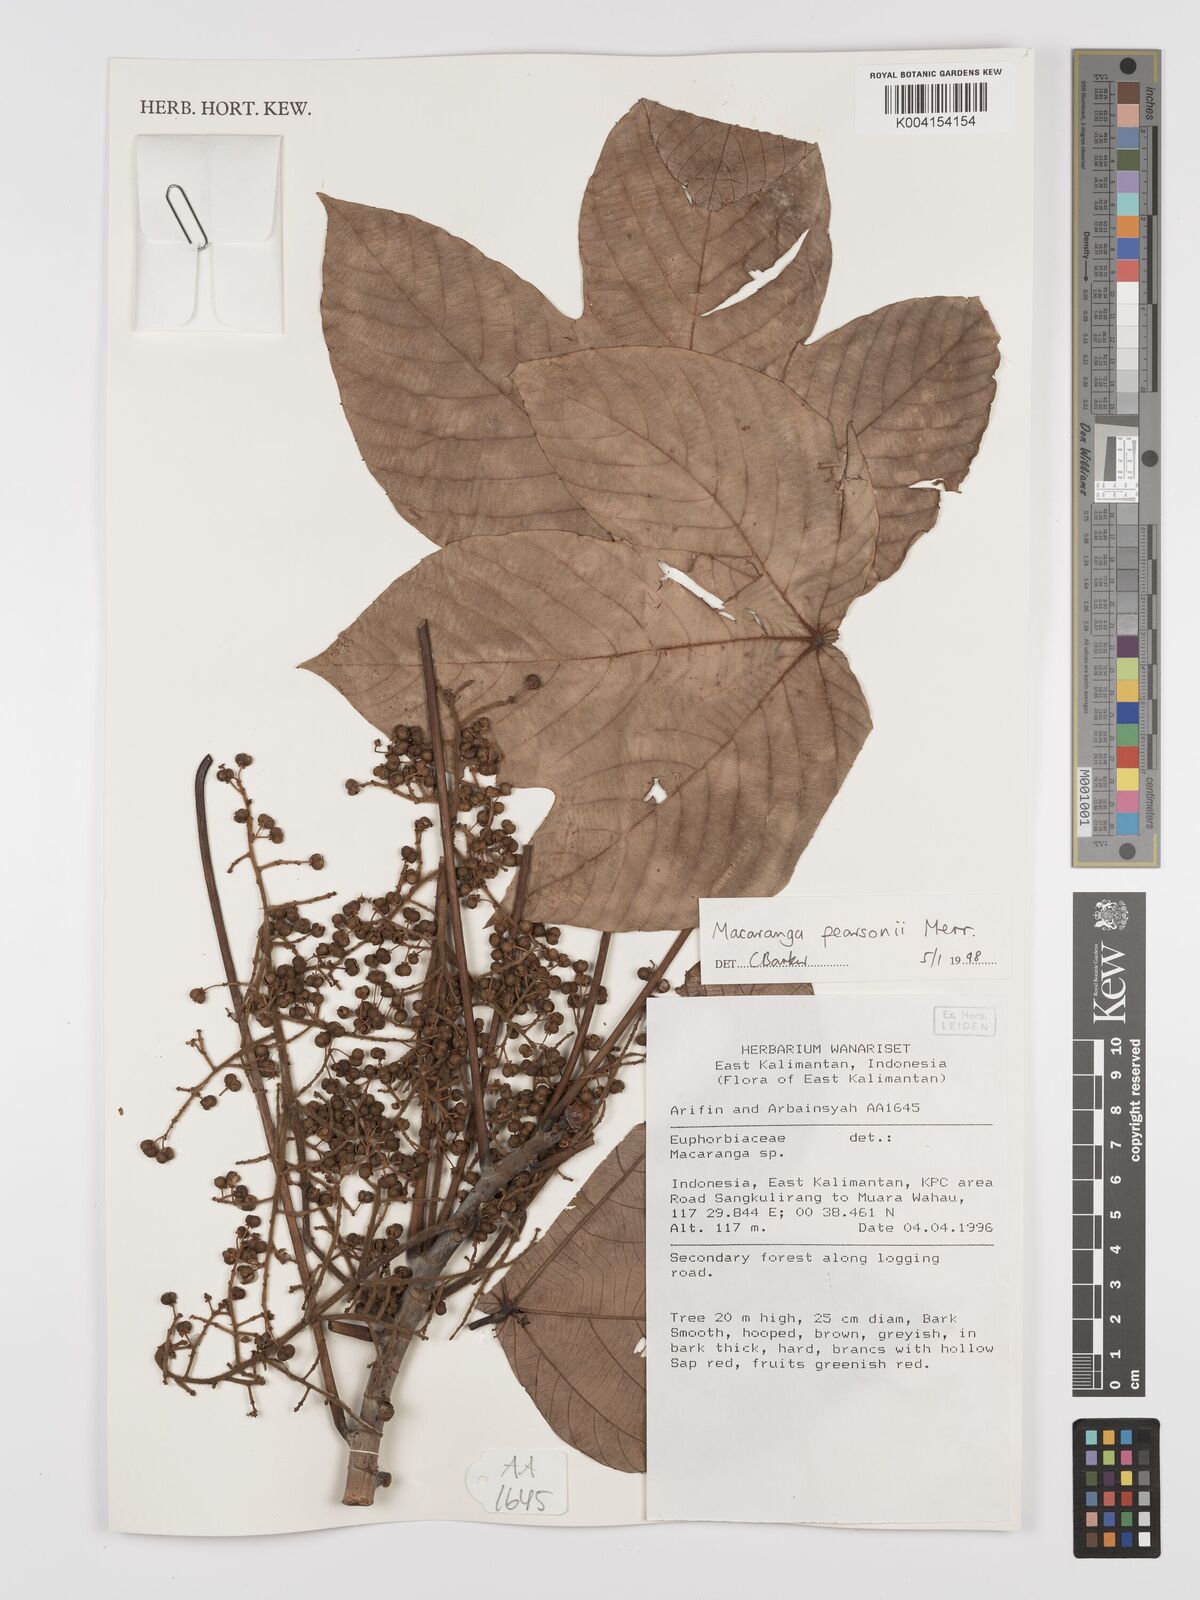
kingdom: Plantae
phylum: Tracheophyta
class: Magnoliopsida
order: Malpighiales
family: Euphorbiaceae
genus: Macaranga
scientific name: Macaranga pearsonii
